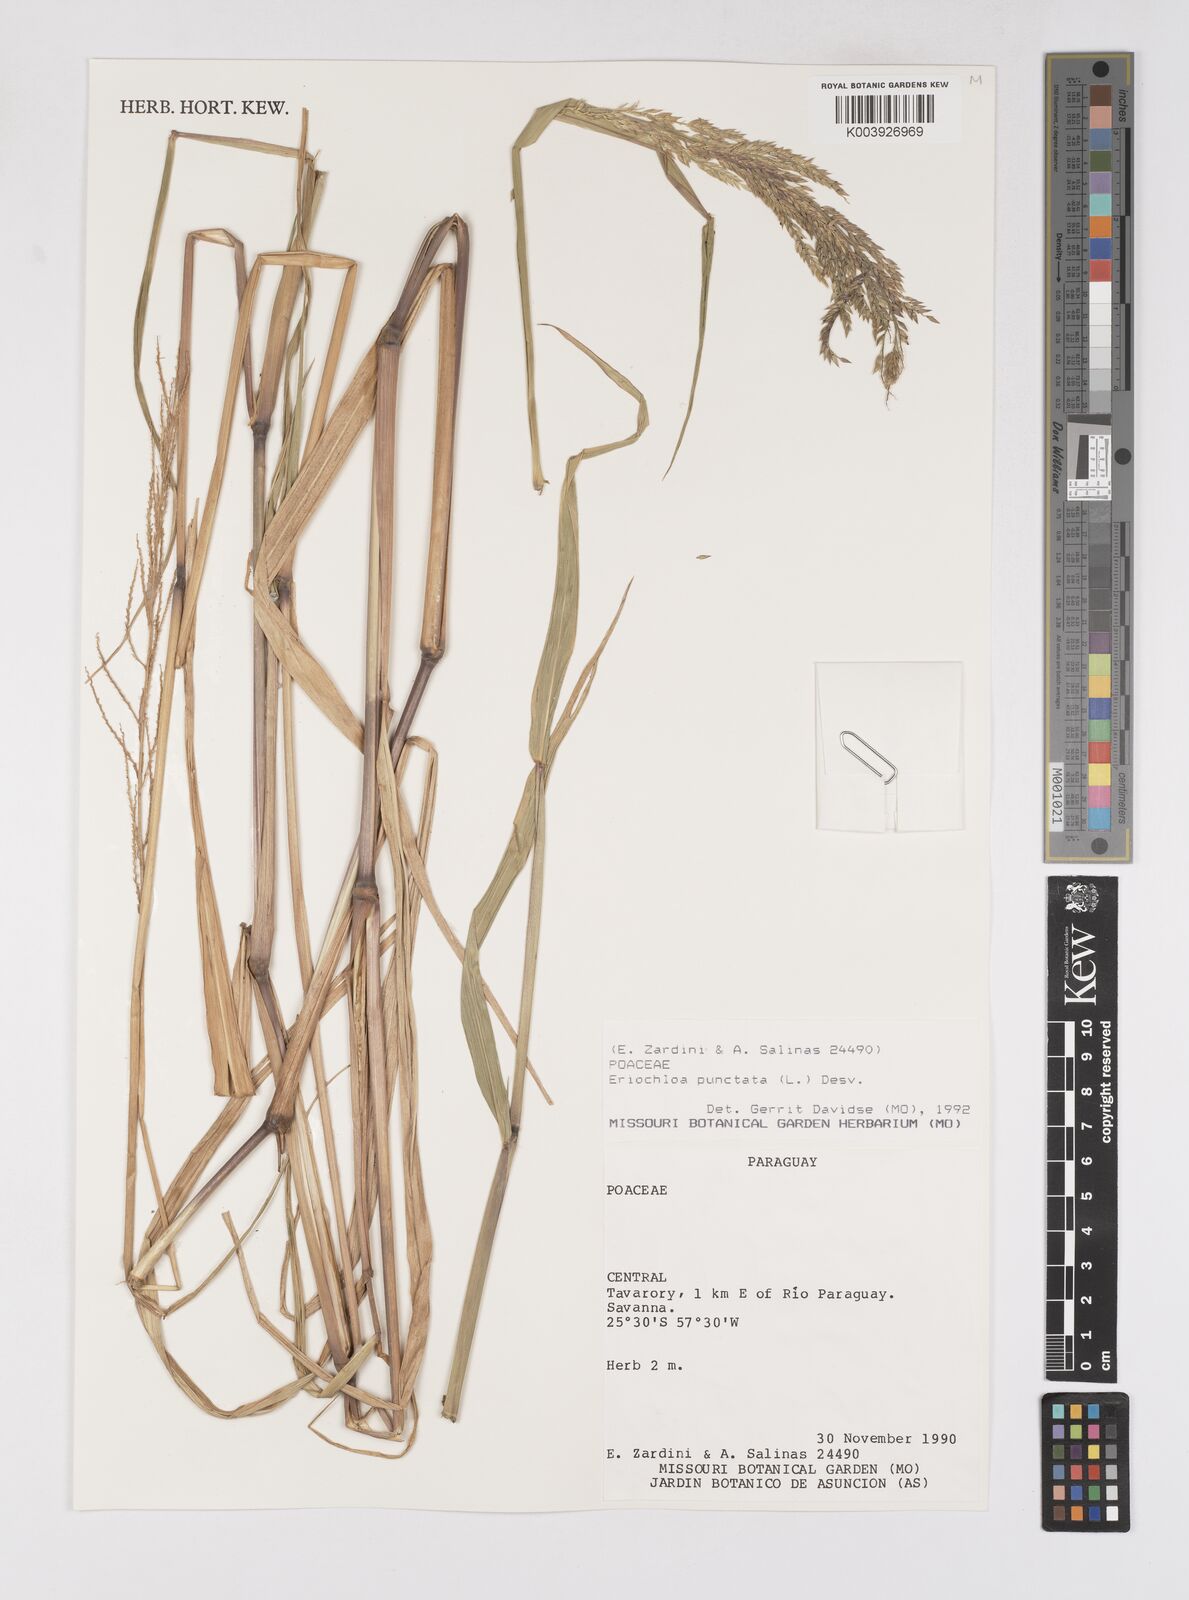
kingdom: Plantae
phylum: Tracheophyta
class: Liliopsida
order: Poales
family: Poaceae
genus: Eriochloa
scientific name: Eriochloa punctata
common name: Louisiana cupgrass
